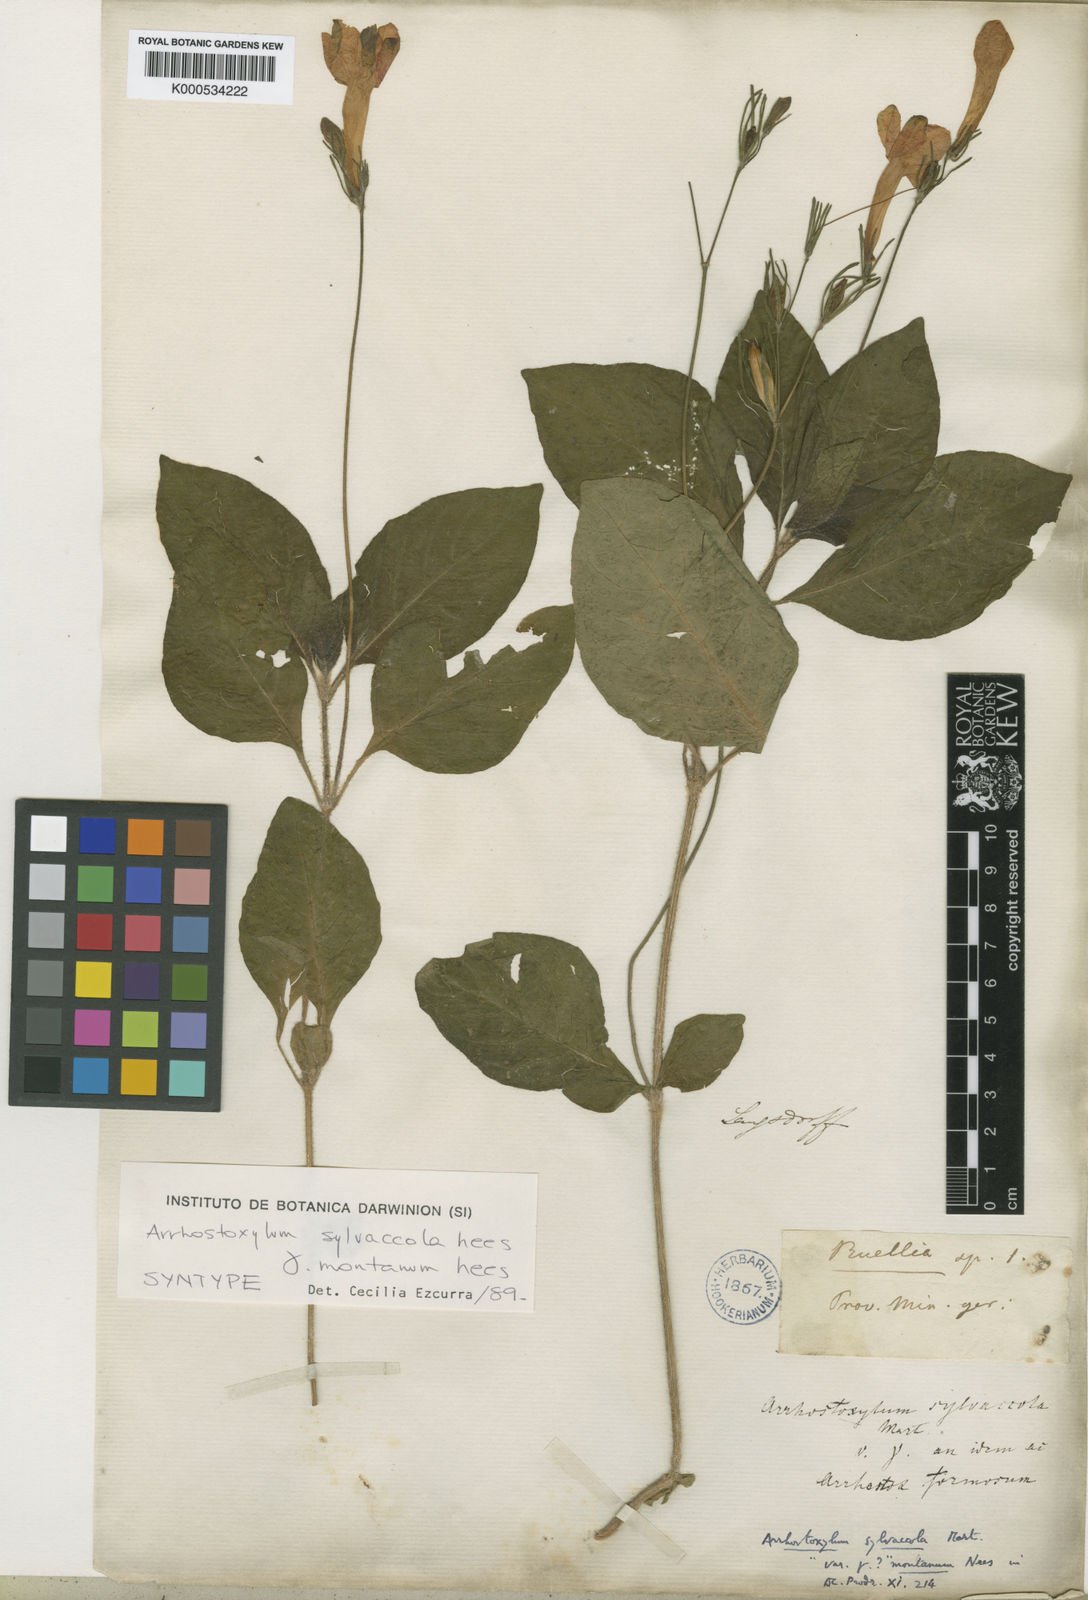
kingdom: Plantae
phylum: Tracheophyta
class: Magnoliopsida
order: Lamiales
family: Acanthaceae
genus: Ruellia
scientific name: Ruellia silvaccola
